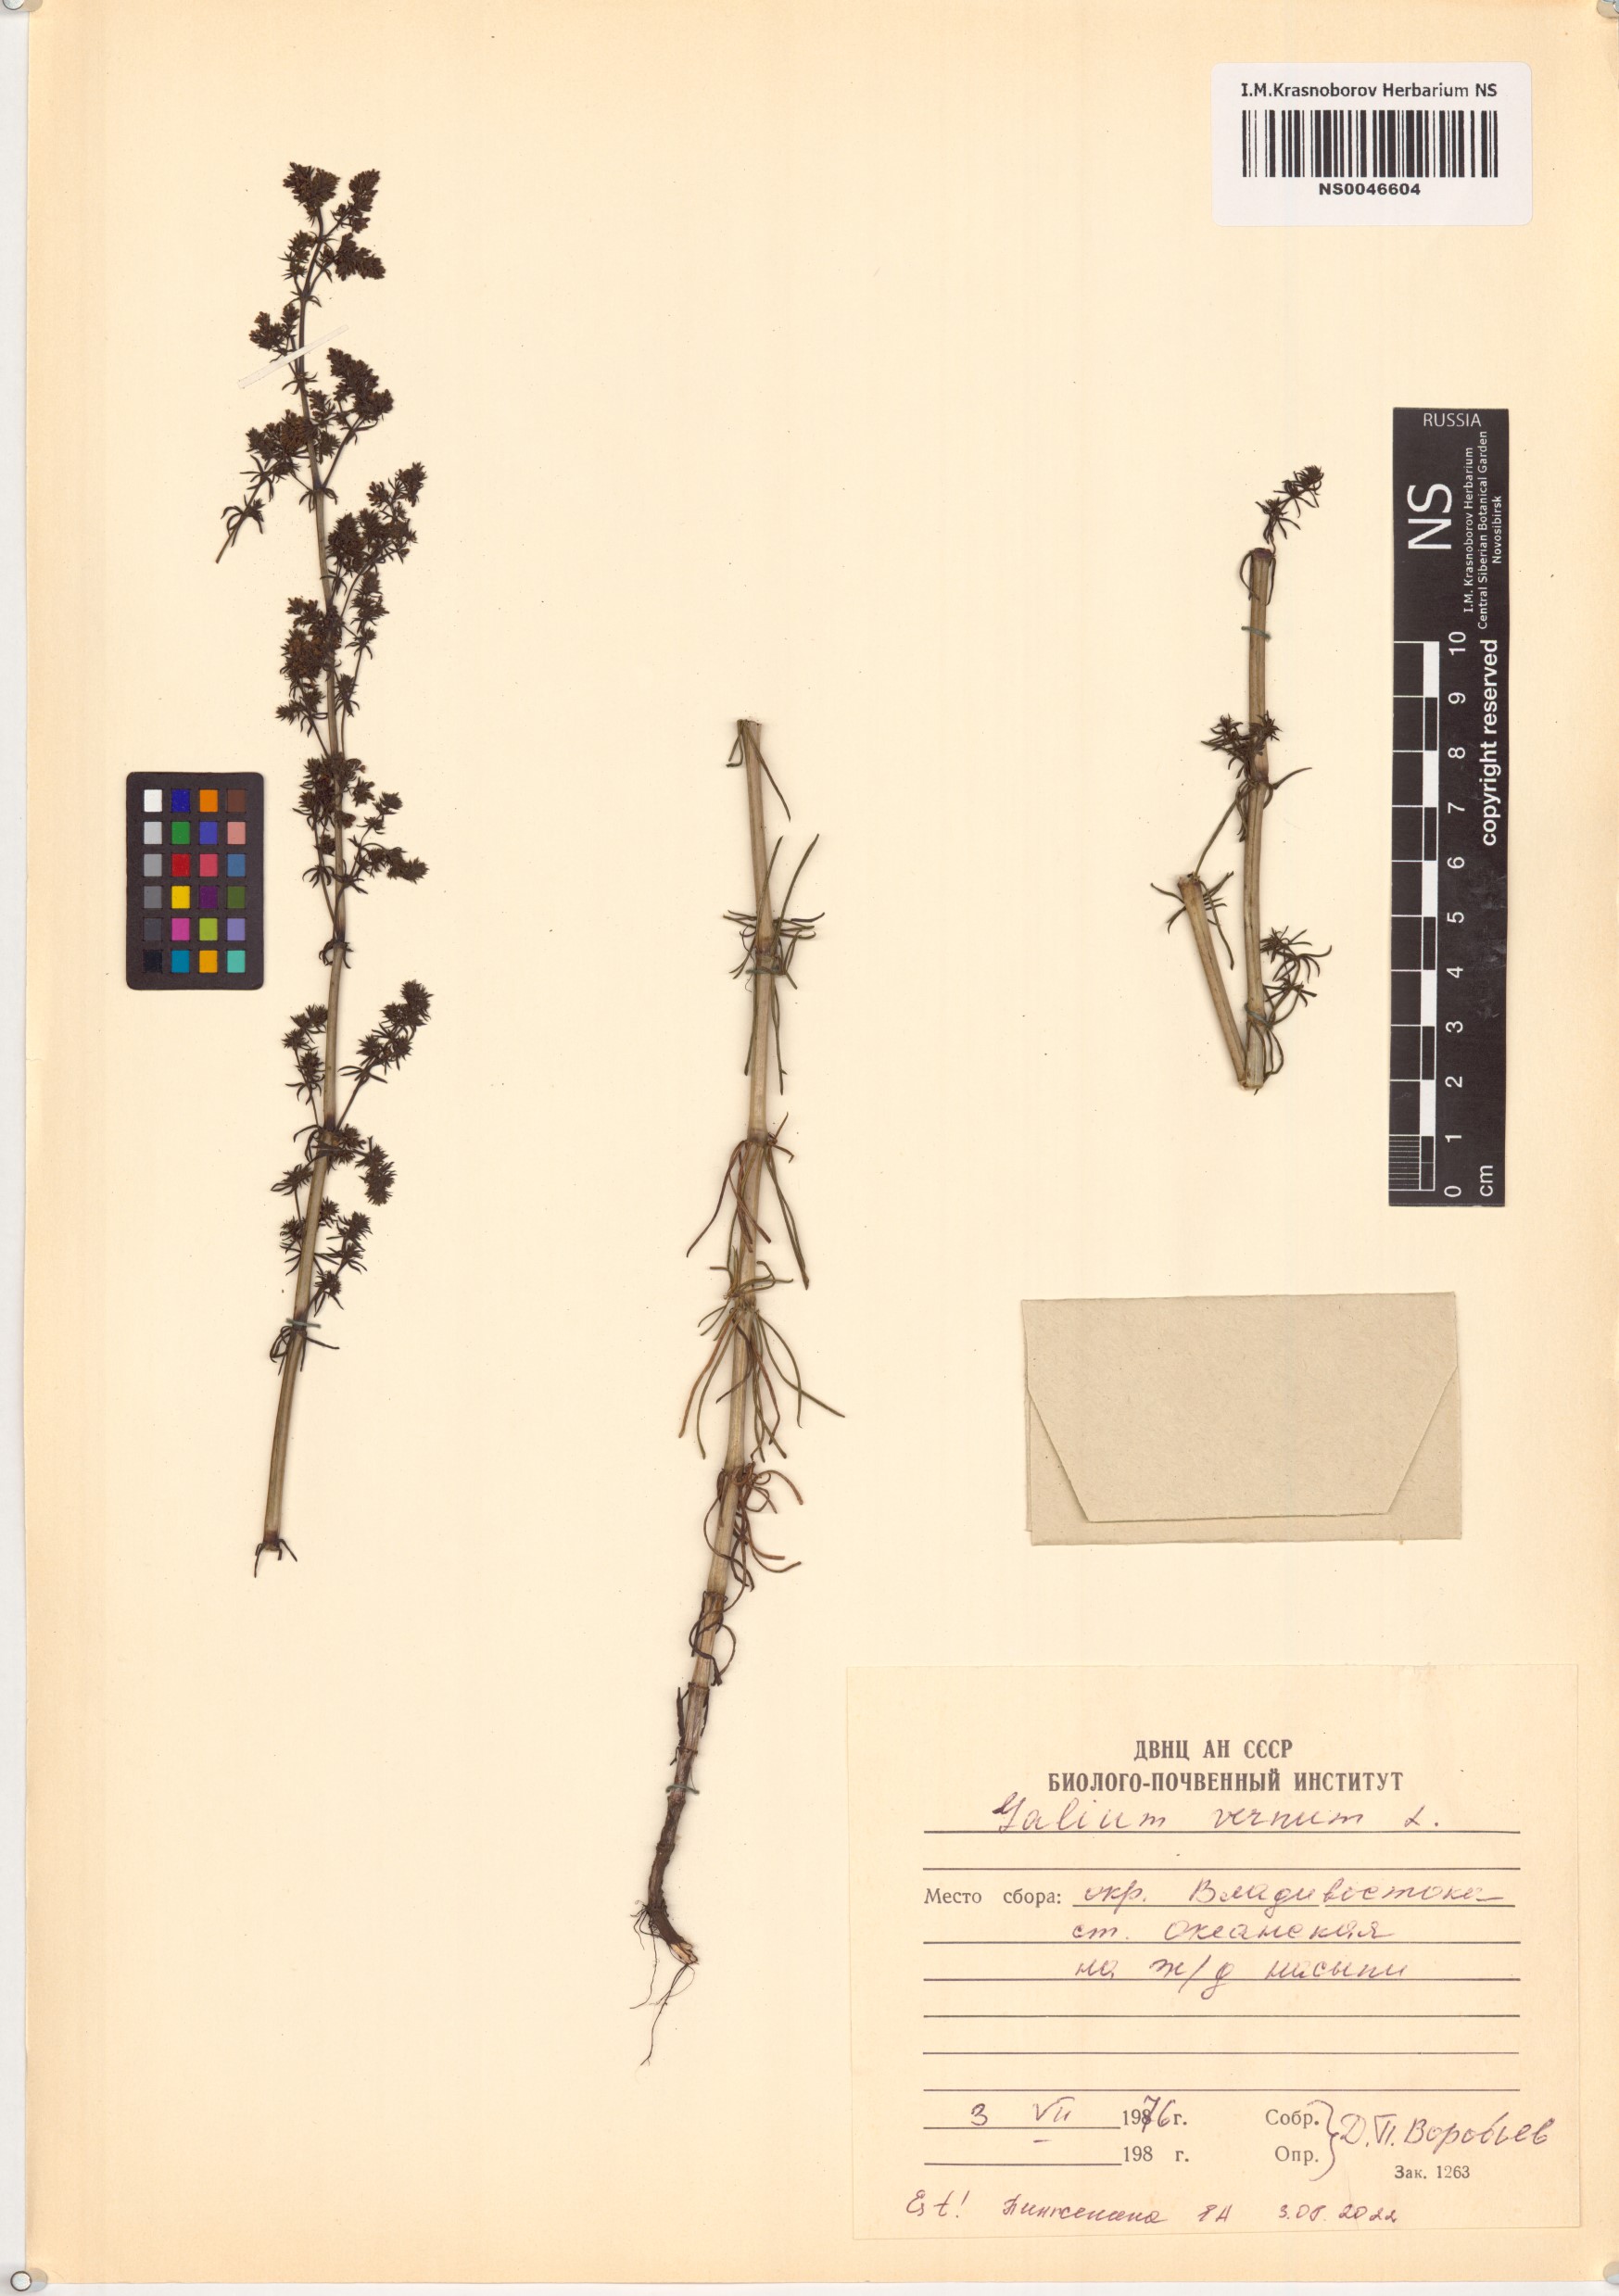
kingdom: Plantae
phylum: Tracheophyta
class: Magnoliopsida
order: Gentianales
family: Rubiaceae
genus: Galium
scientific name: Galium verum
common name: Lady's bedstraw
